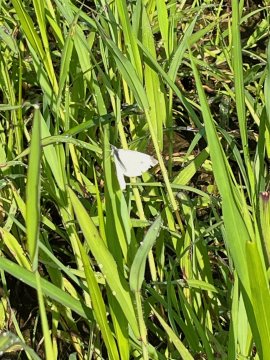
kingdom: Animalia
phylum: Arthropoda
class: Insecta
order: Lepidoptera
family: Pieridae
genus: Pieris
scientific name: Pieris rapae
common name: Cabbage White
